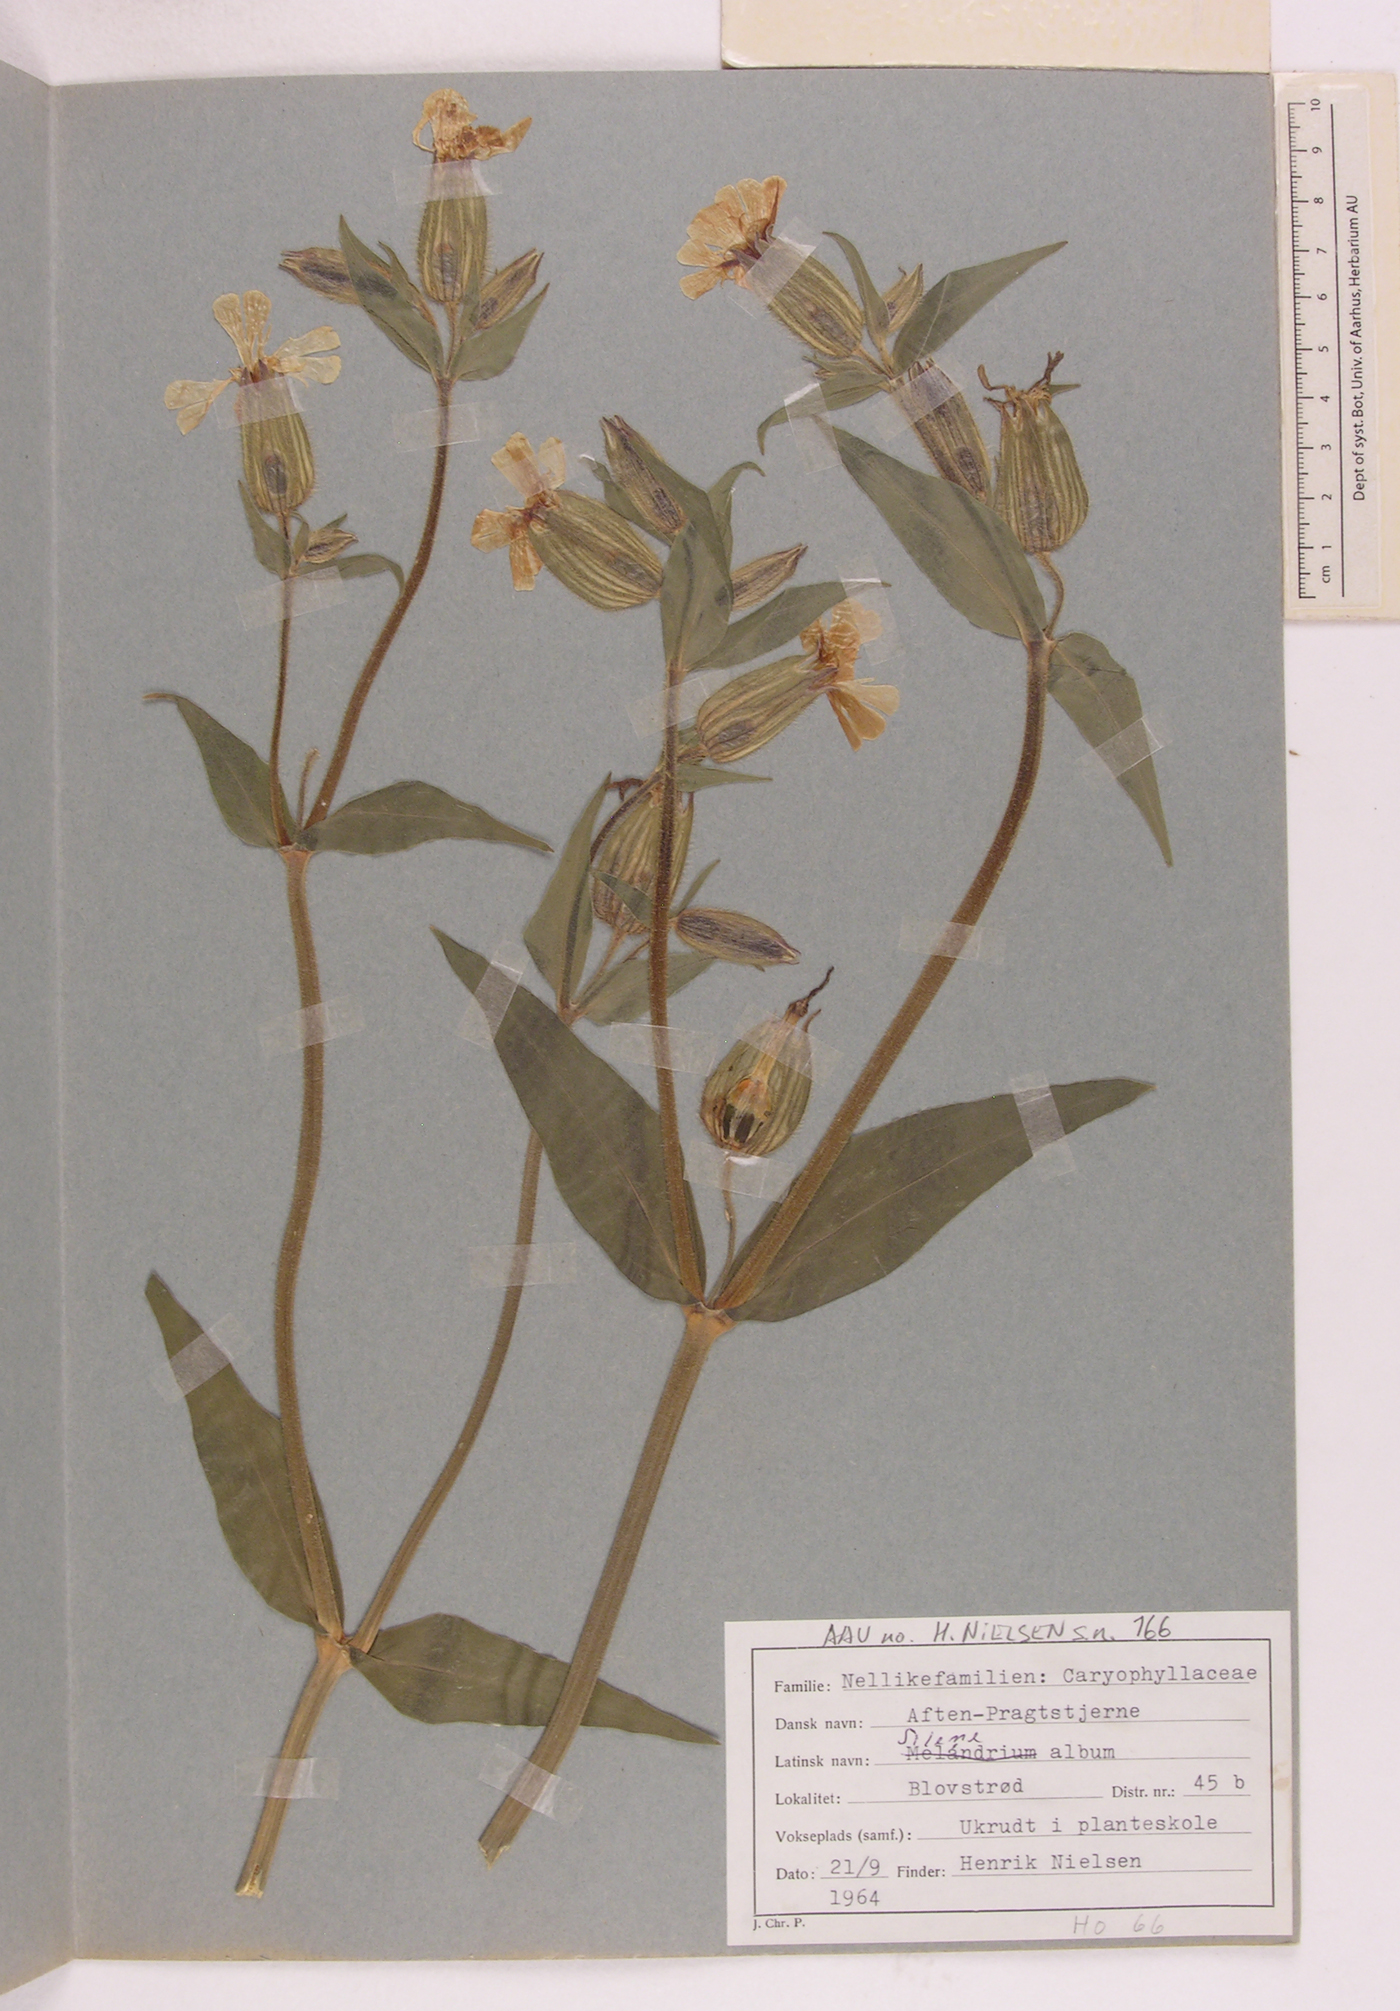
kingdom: Plantae
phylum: Tracheophyta
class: Magnoliopsida
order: Caryophyllales
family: Caryophyllaceae
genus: Silene
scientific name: Silene latifolia
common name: White campion
